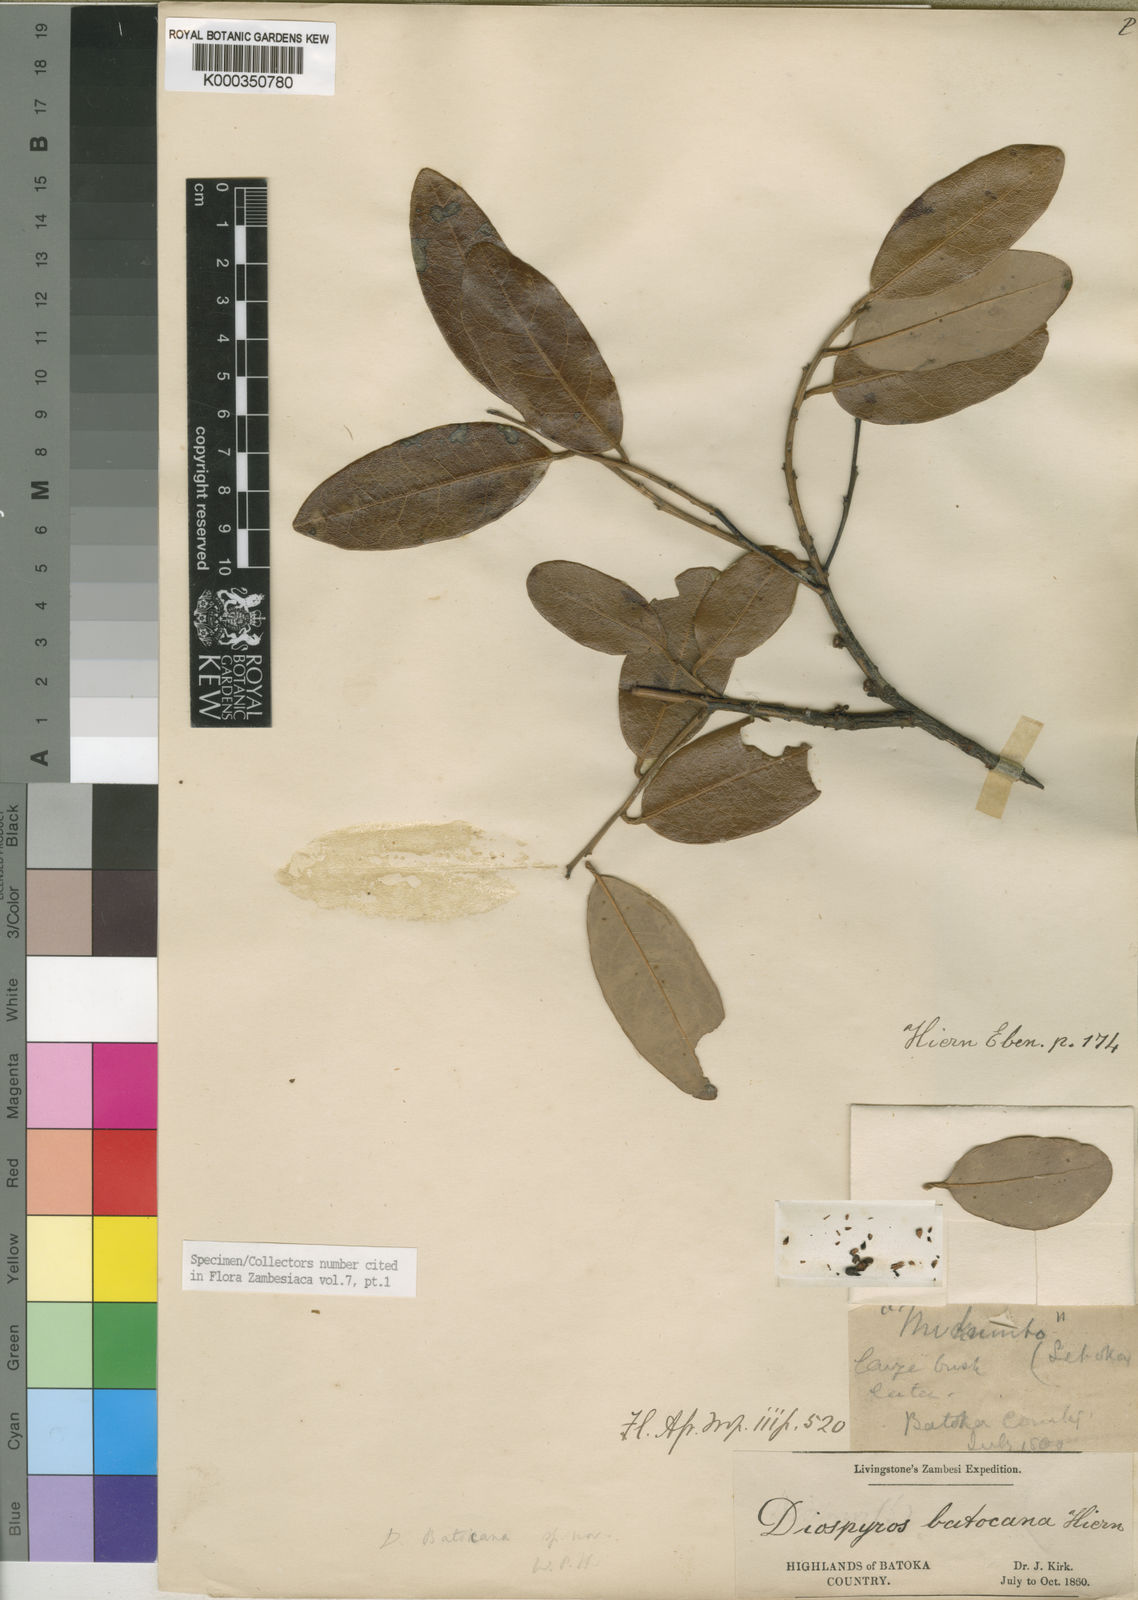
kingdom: Plantae
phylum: Tracheophyta
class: Magnoliopsida
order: Ericales
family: Ebenaceae
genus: Diospyros
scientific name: Diospyros batocana
